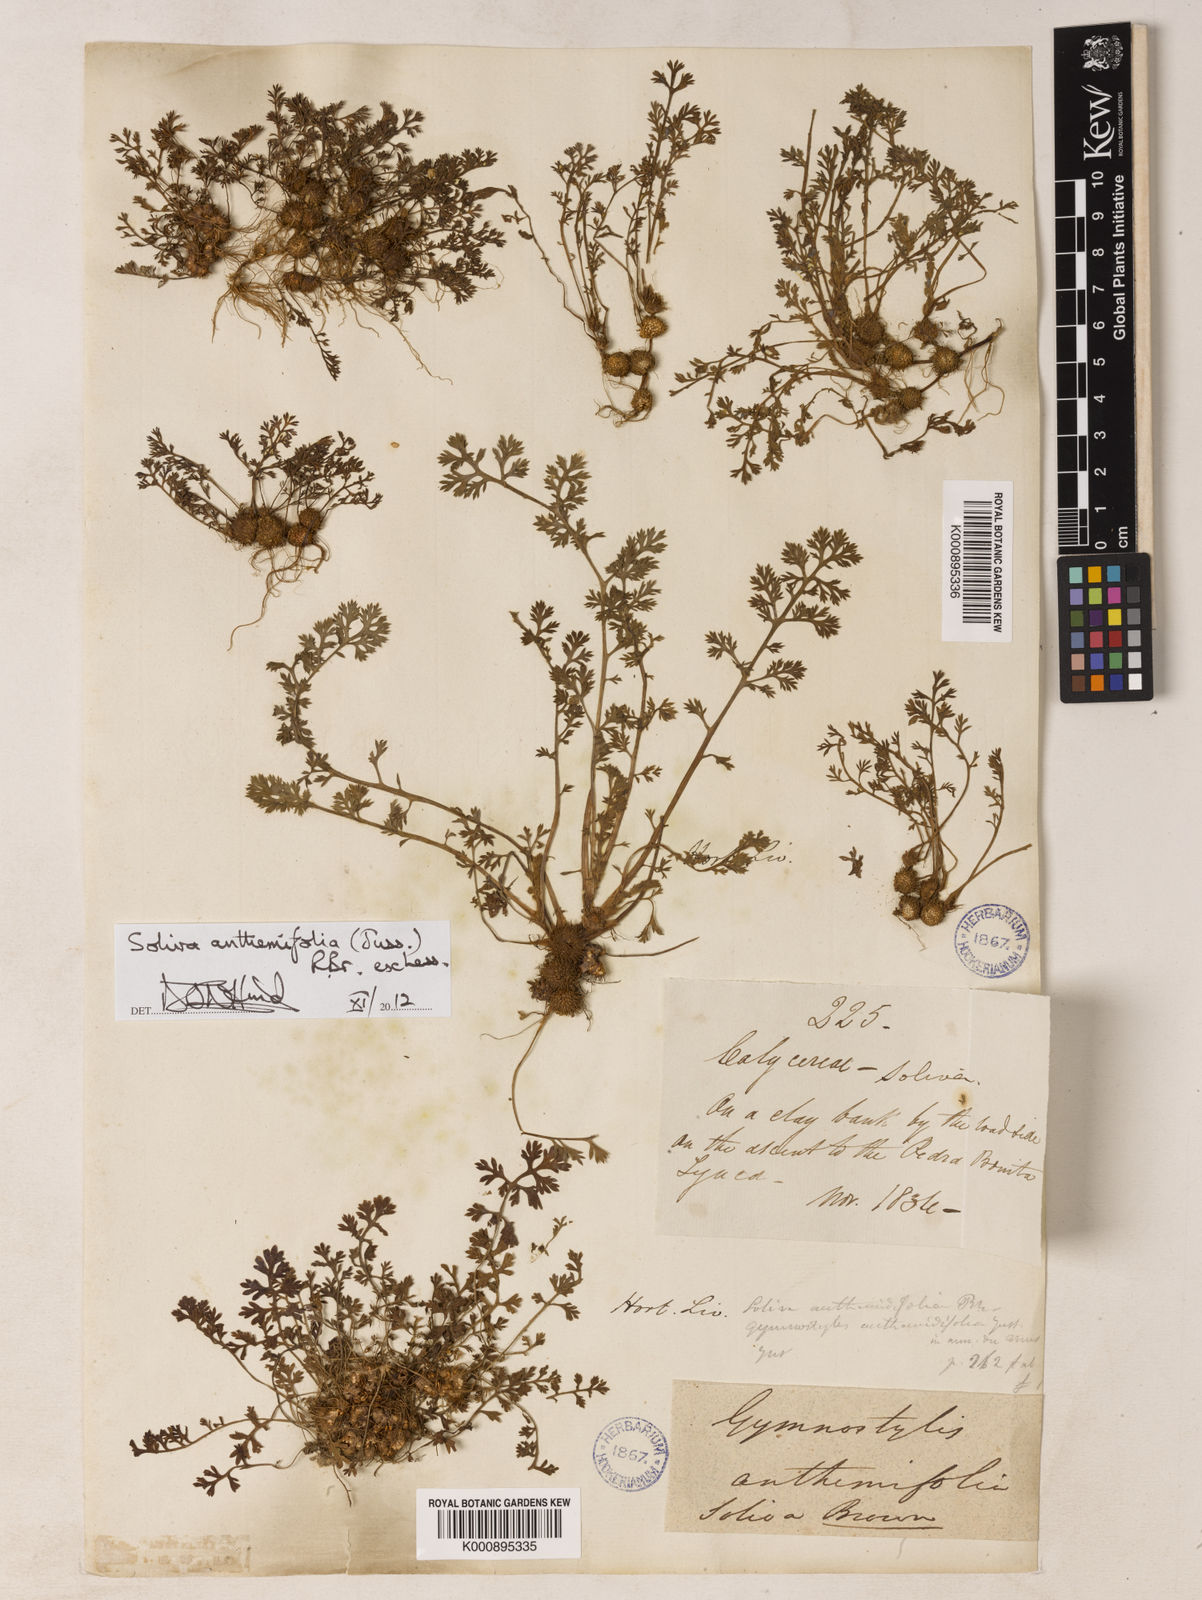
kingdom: Plantae
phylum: Tracheophyta
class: Magnoliopsida
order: Asterales
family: Asteraceae
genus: Soliva
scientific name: Soliva
